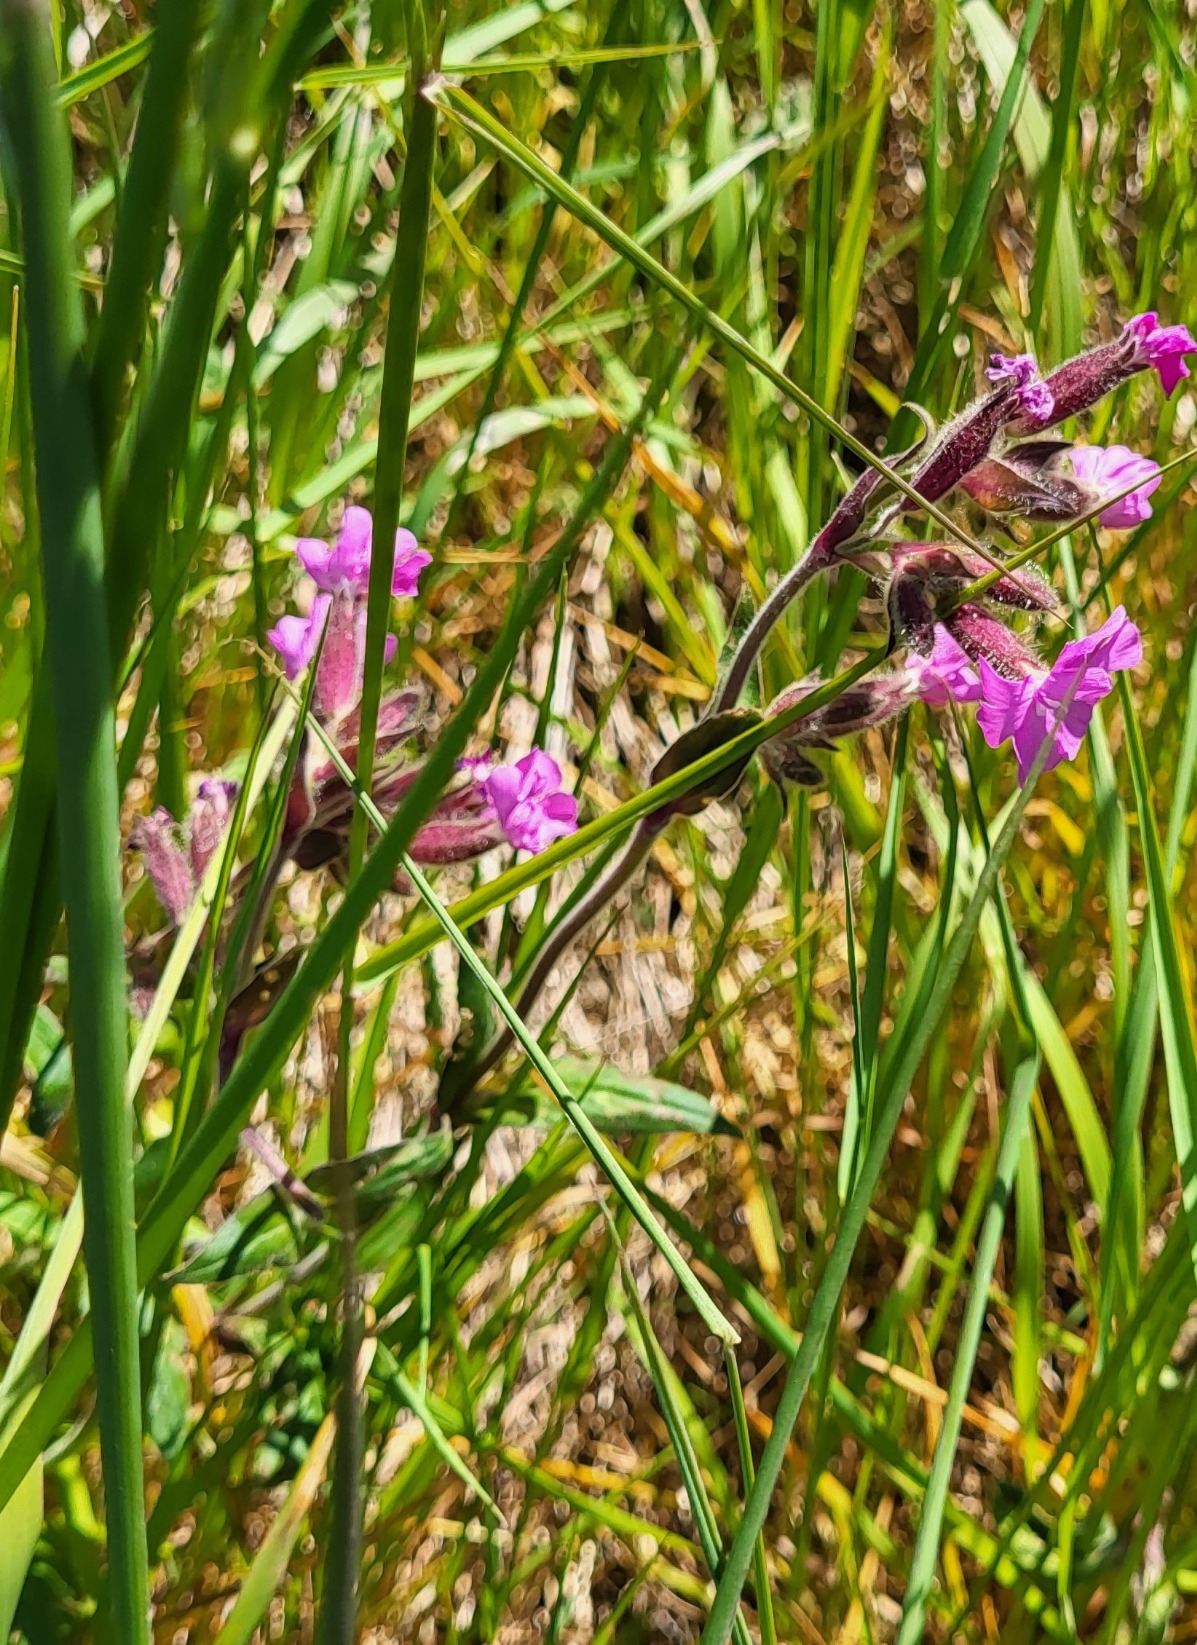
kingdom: Plantae
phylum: Tracheophyta
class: Magnoliopsida
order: Caryophyllales
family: Caryophyllaceae
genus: Silene
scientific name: Silene dioica
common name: Dagpragtstjerne
